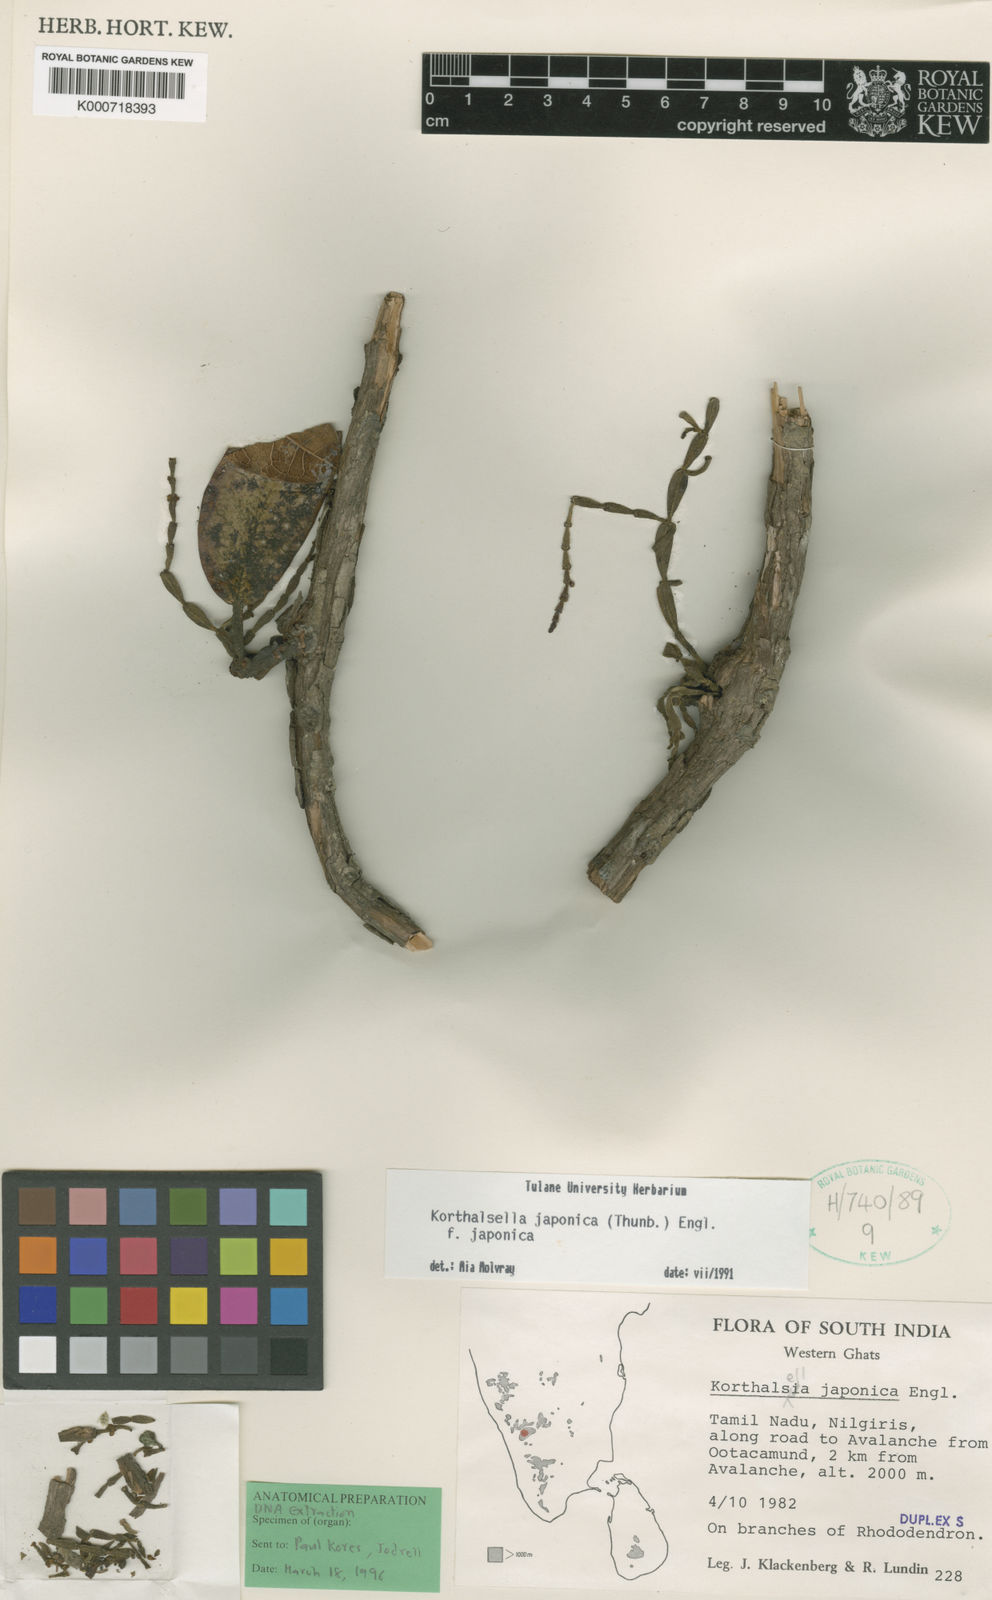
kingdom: Plantae
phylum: Tracheophyta
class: Magnoliopsida
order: Santalales
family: Viscaceae
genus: Korthalsella
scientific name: Korthalsella japonica
